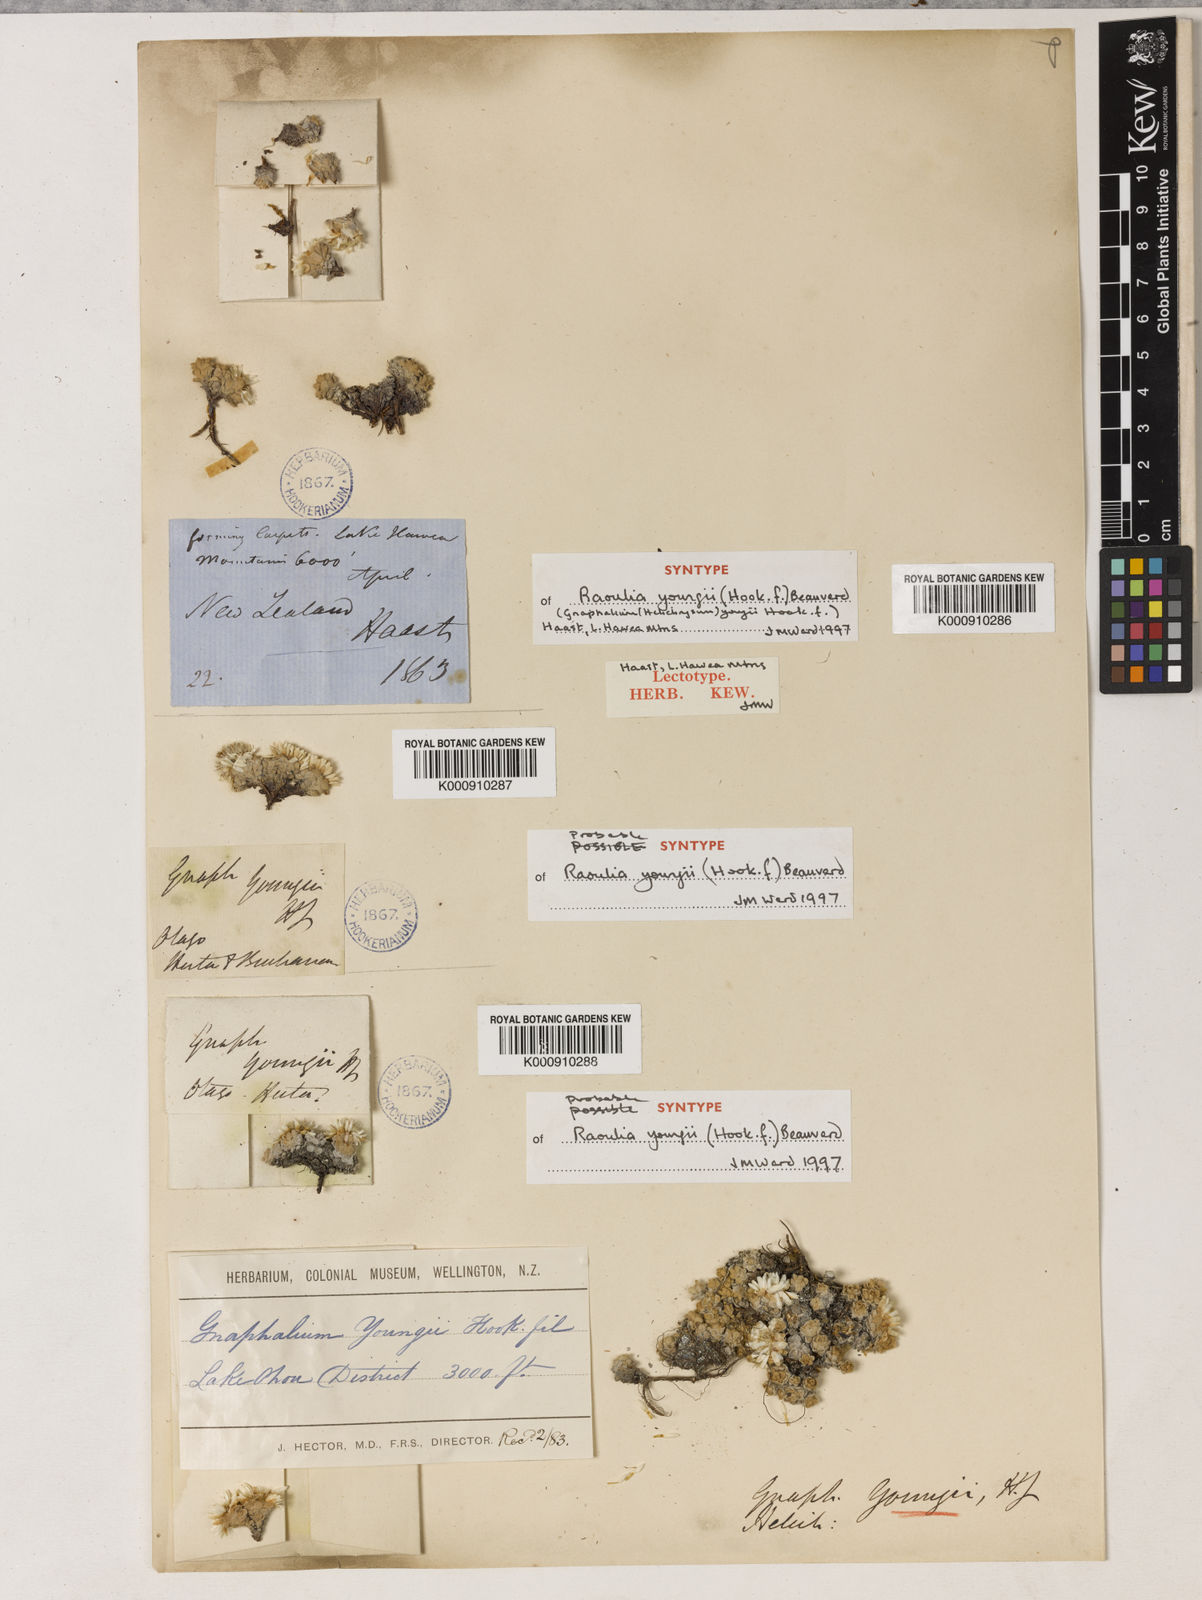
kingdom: Plantae
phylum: Tracheophyta
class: Magnoliopsida
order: Asterales
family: Asteraceae
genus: Raoulia
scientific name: Raoulia youngii
